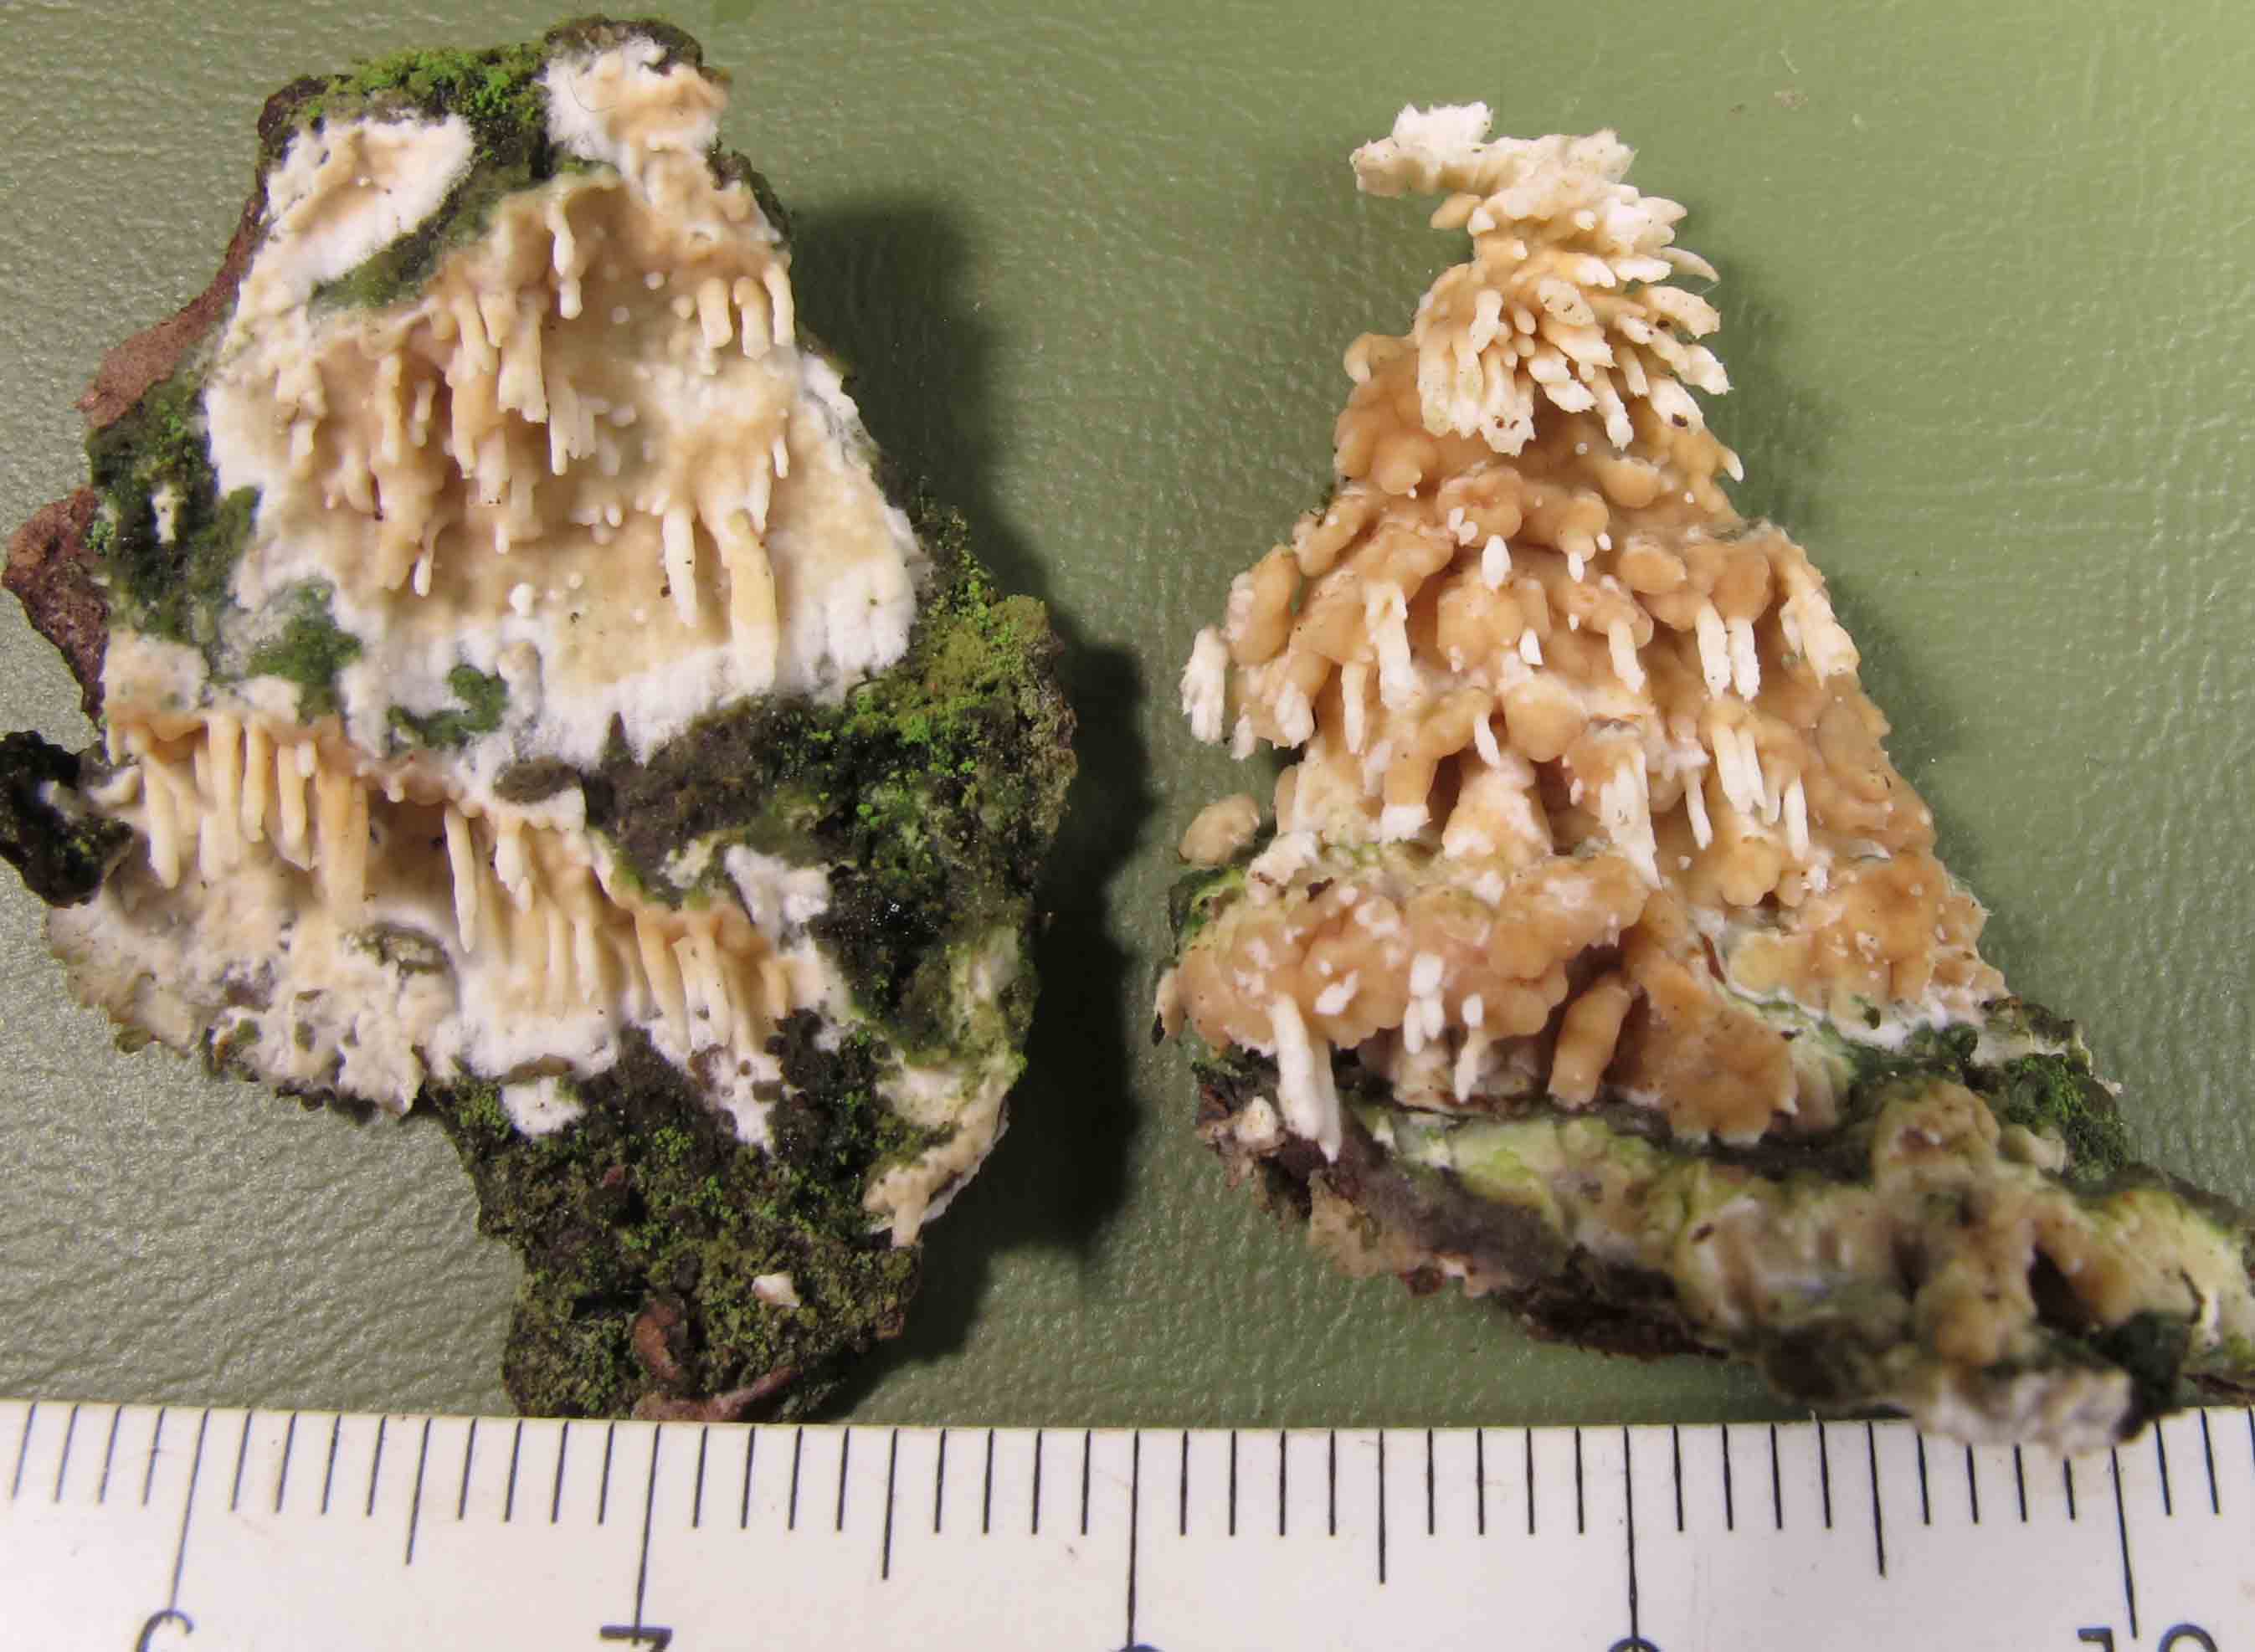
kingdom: Fungi
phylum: Basidiomycota
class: Agaricomycetes
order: Hymenochaetales
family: Schizoporaceae
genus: Xylodon
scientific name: Xylodon radula
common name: grovtandet kalkskind
